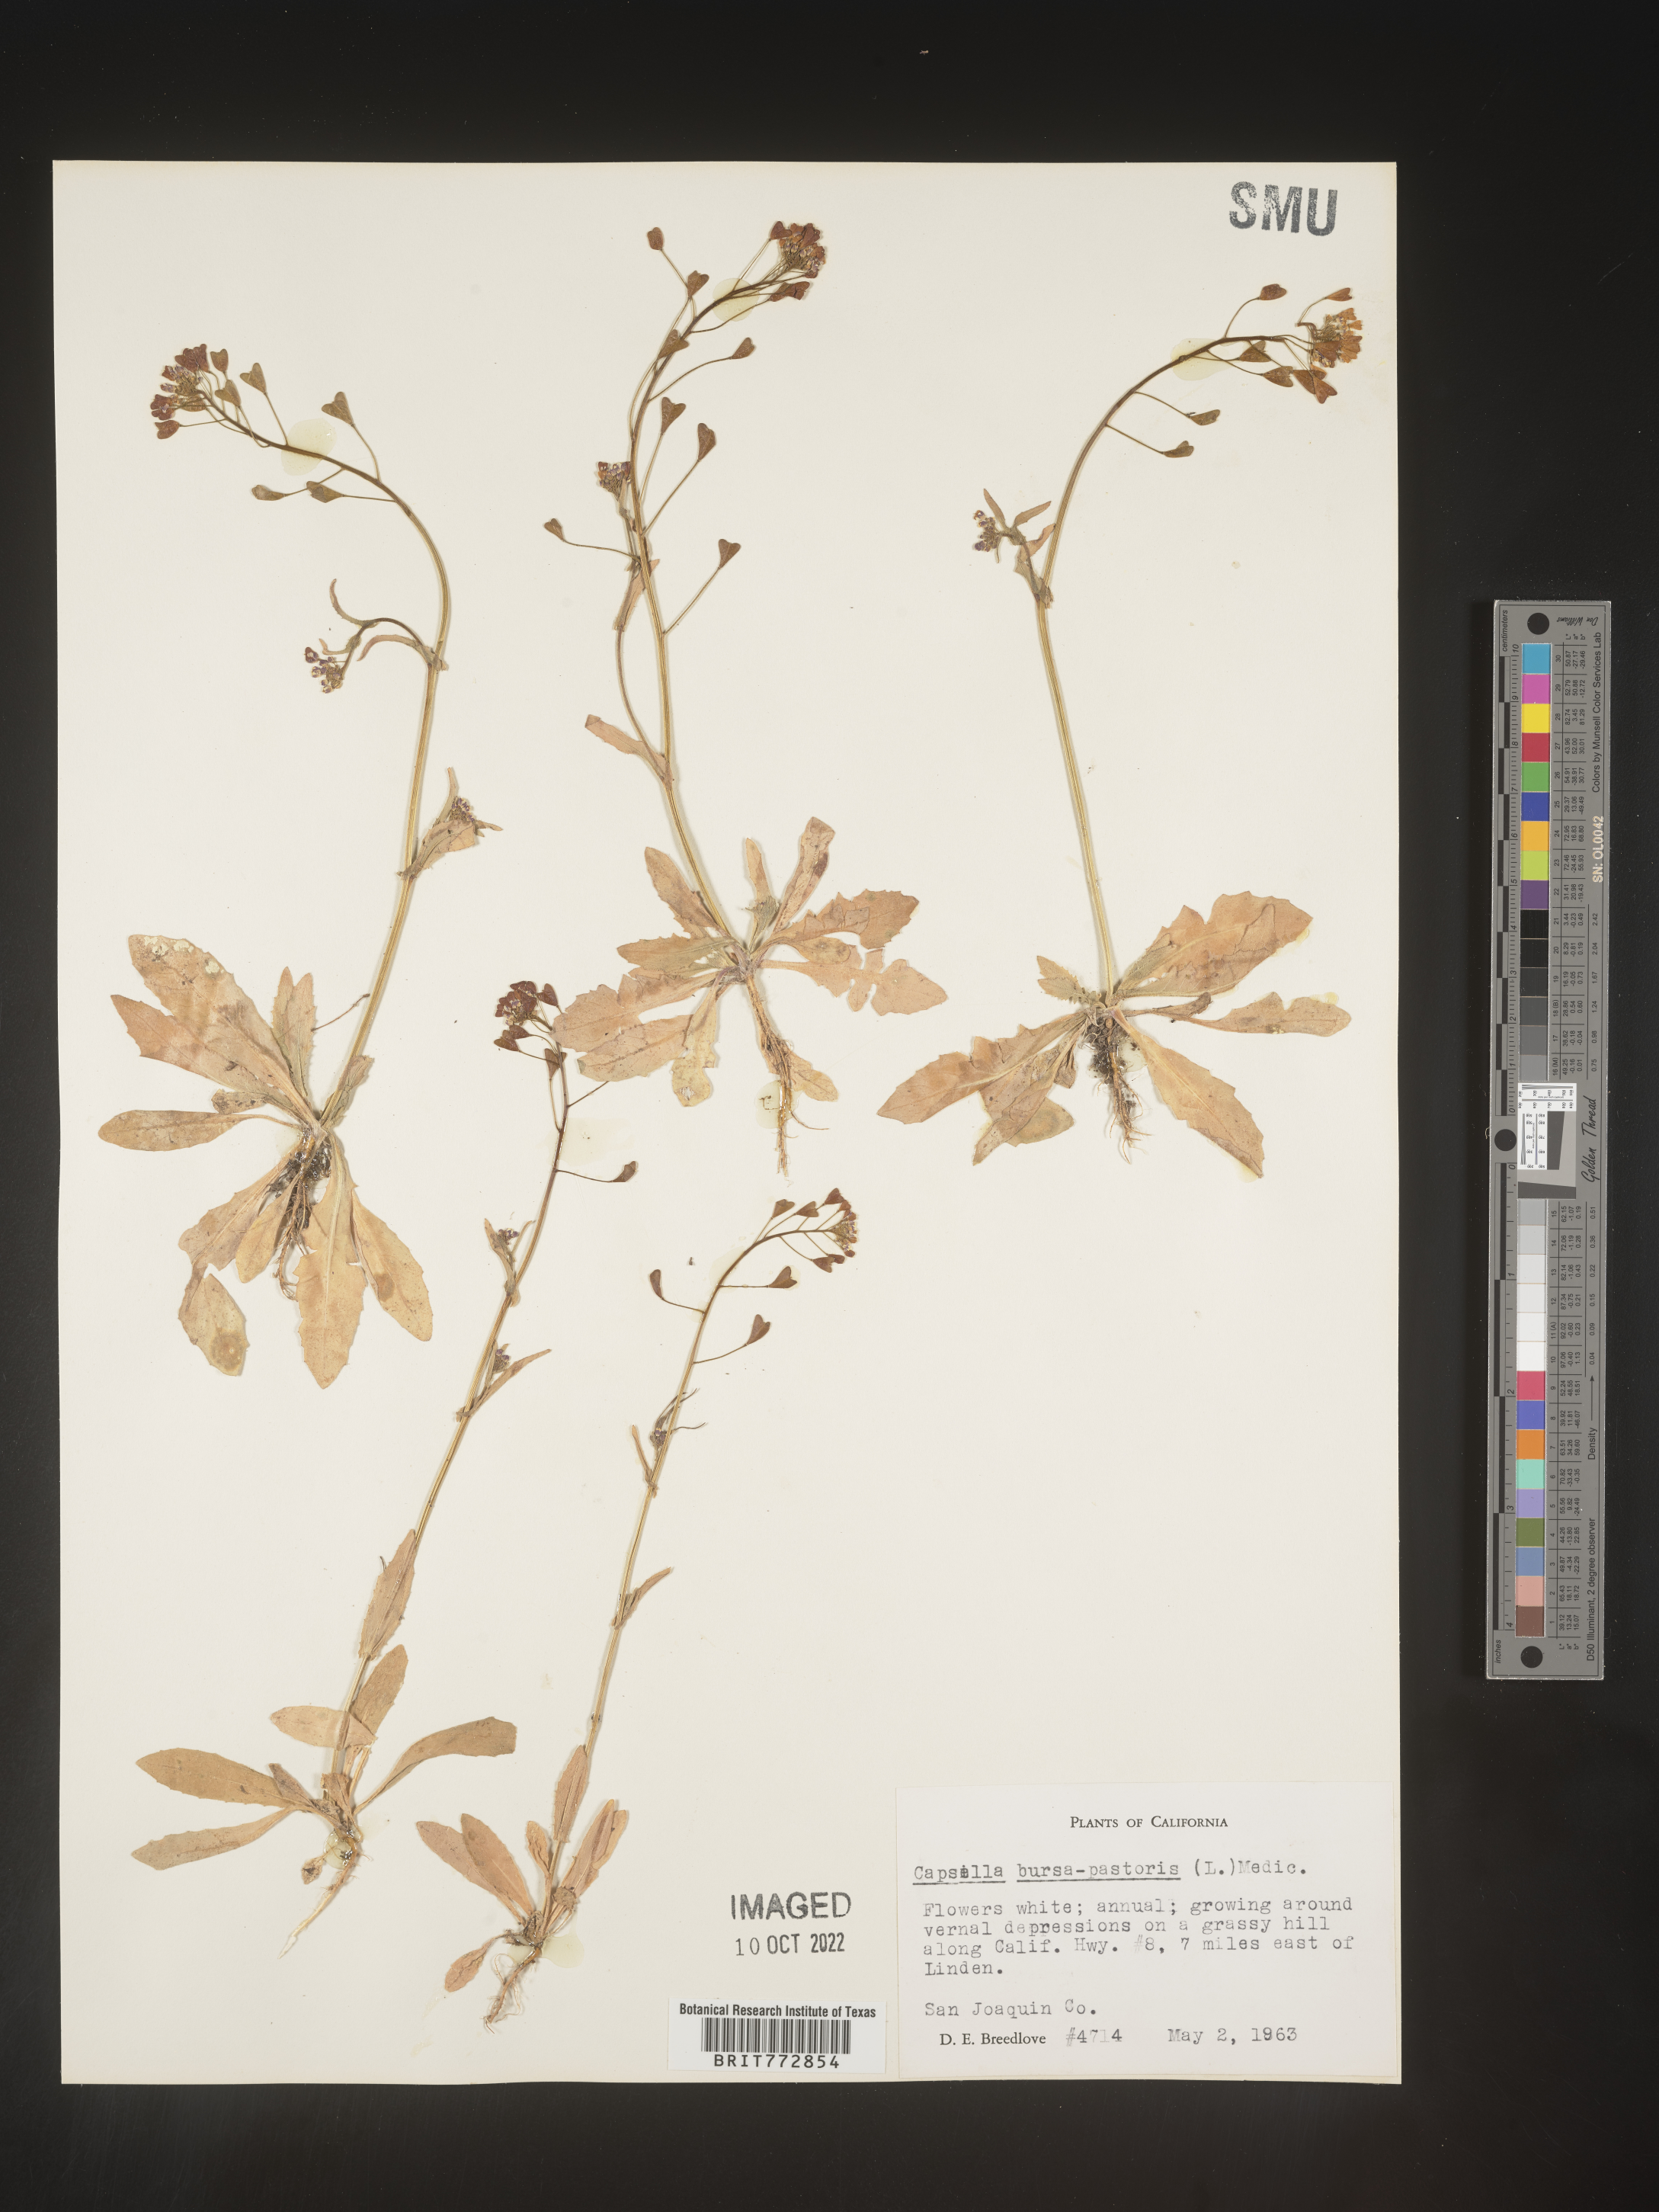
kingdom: Plantae
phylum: Tracheophyta
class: Magnoliopsida
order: Brassicales
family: Brassicaceae
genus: Capsella
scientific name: Capsella bursa-pastoris
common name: Shepherd's purse
